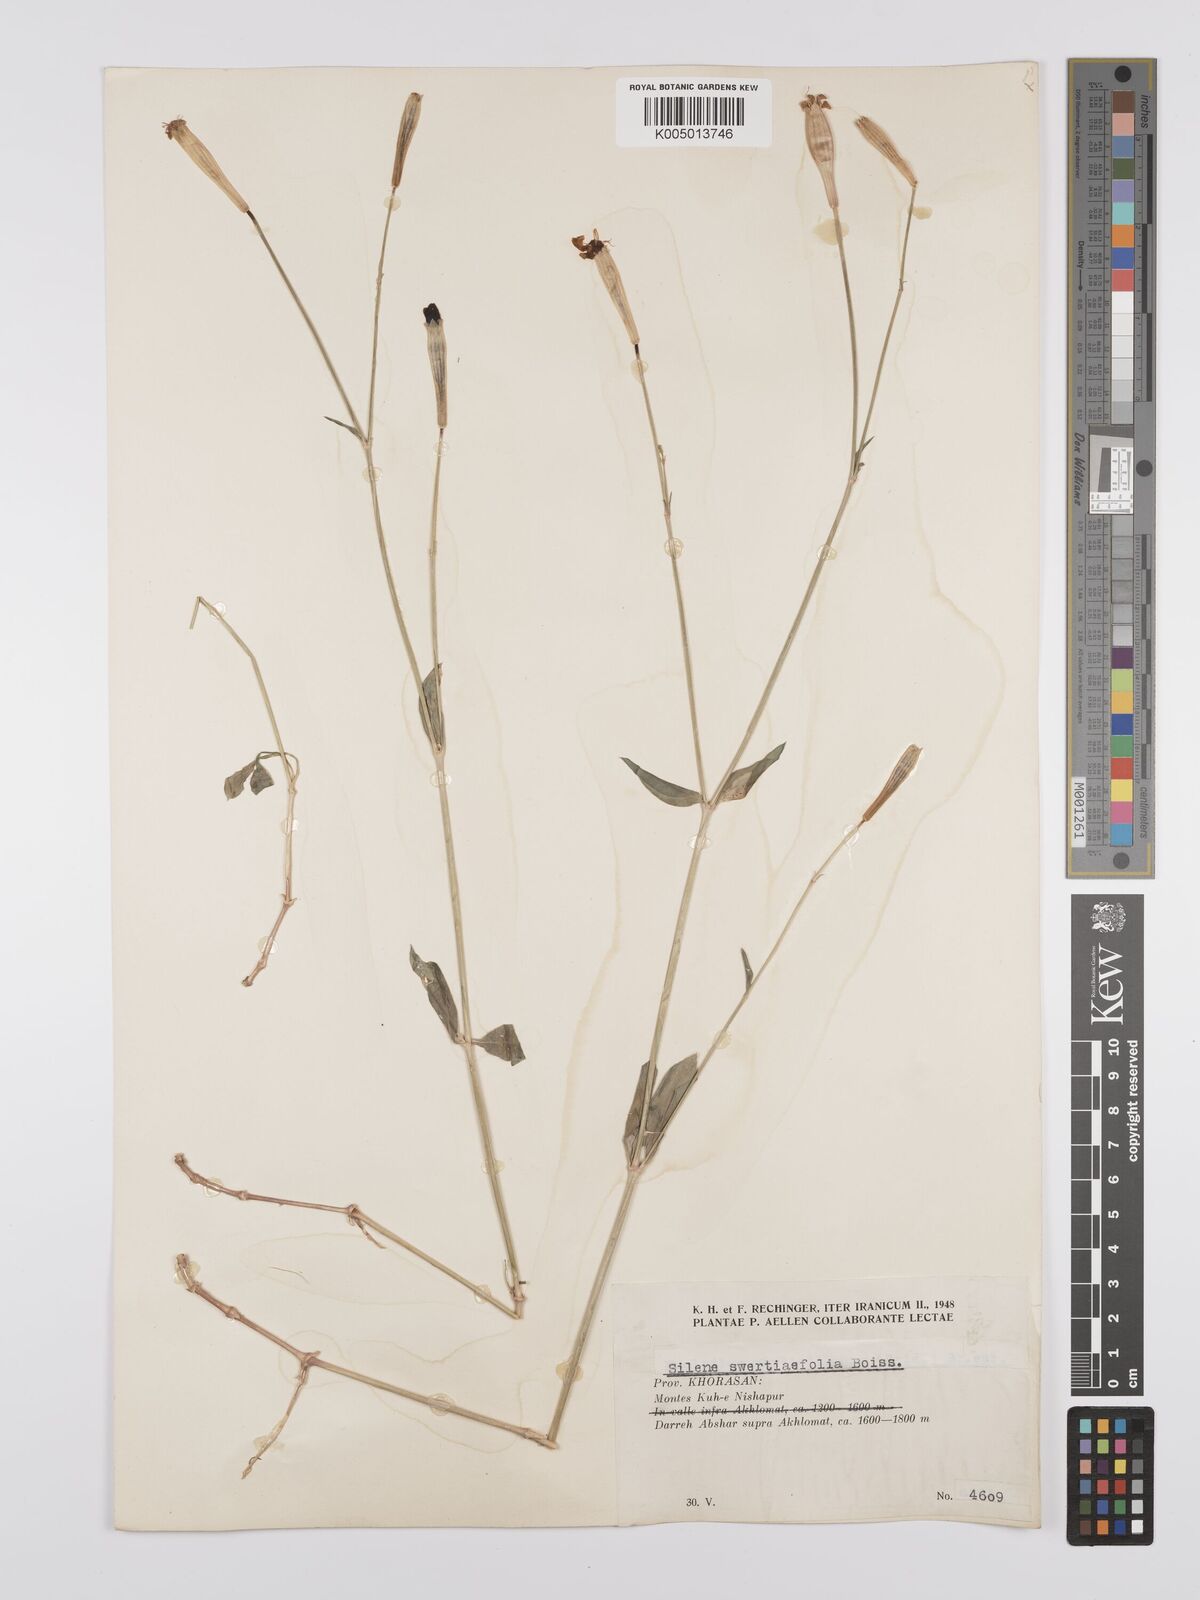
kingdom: Plantae
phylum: Tracheophyta
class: Magnoliopsida
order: Caryophyllales
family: Caryophyllaceae
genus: Silene
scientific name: Silene swertiifolia
